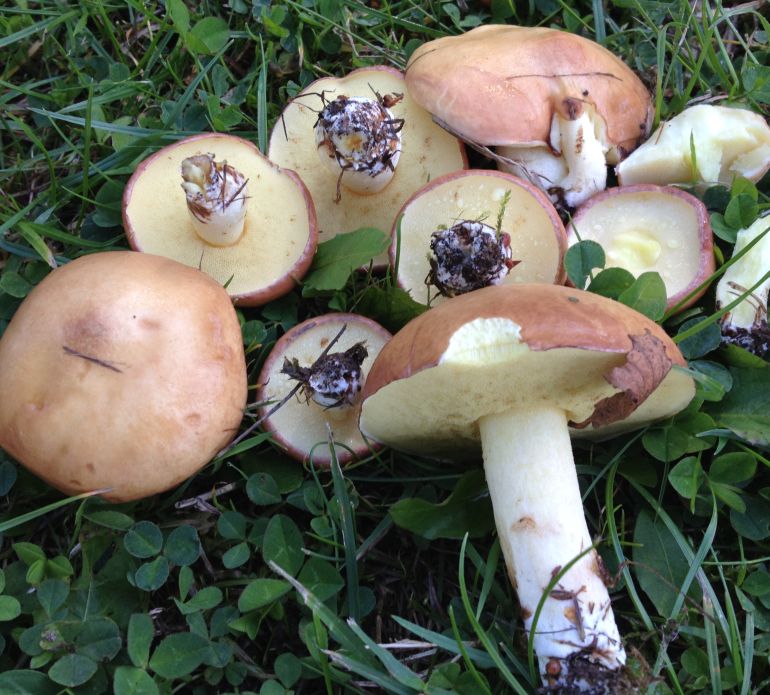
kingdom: Fungi
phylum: Basidiomycota
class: Agaricomycetes
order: Boletales
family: Suillaceae
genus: Suillus
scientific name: Suillus granulatus
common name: kornet slimrørhat
